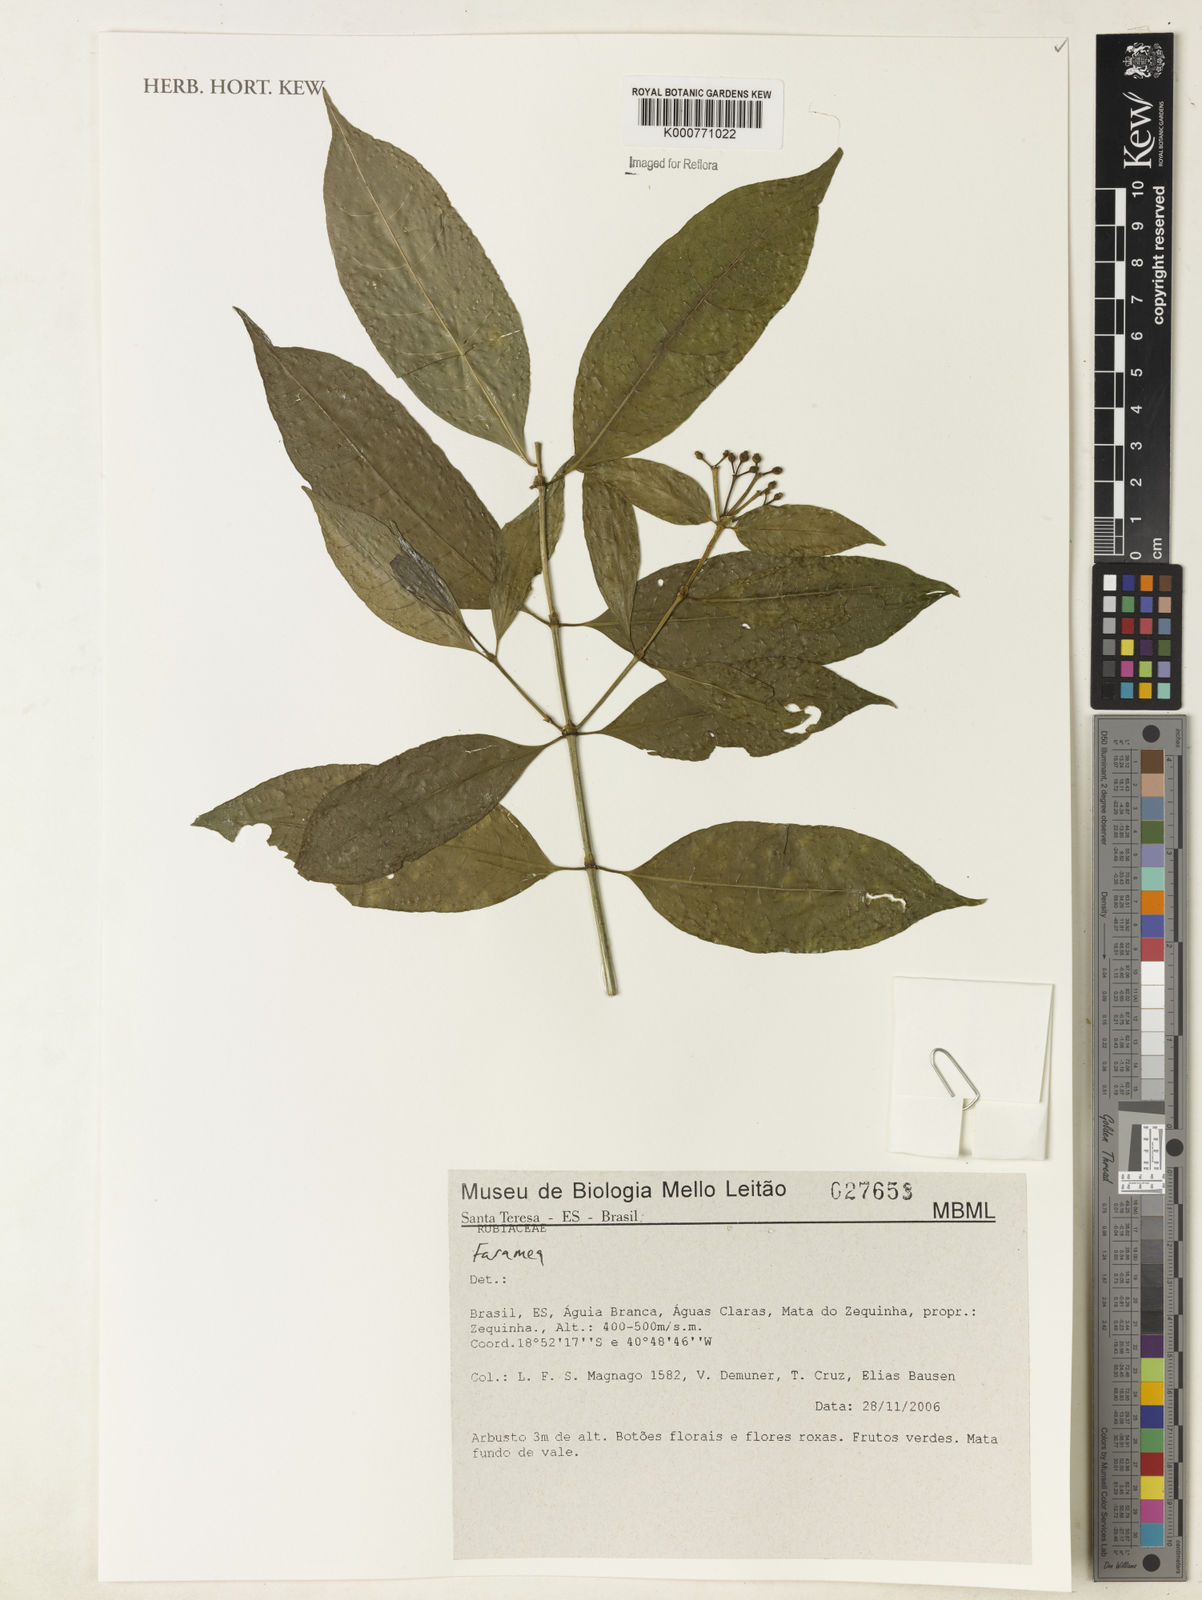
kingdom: Plantae
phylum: Tracheophyta
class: Magnoliopsida
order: Gentianales
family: Rubiaceae
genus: Faramea
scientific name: Faramea
